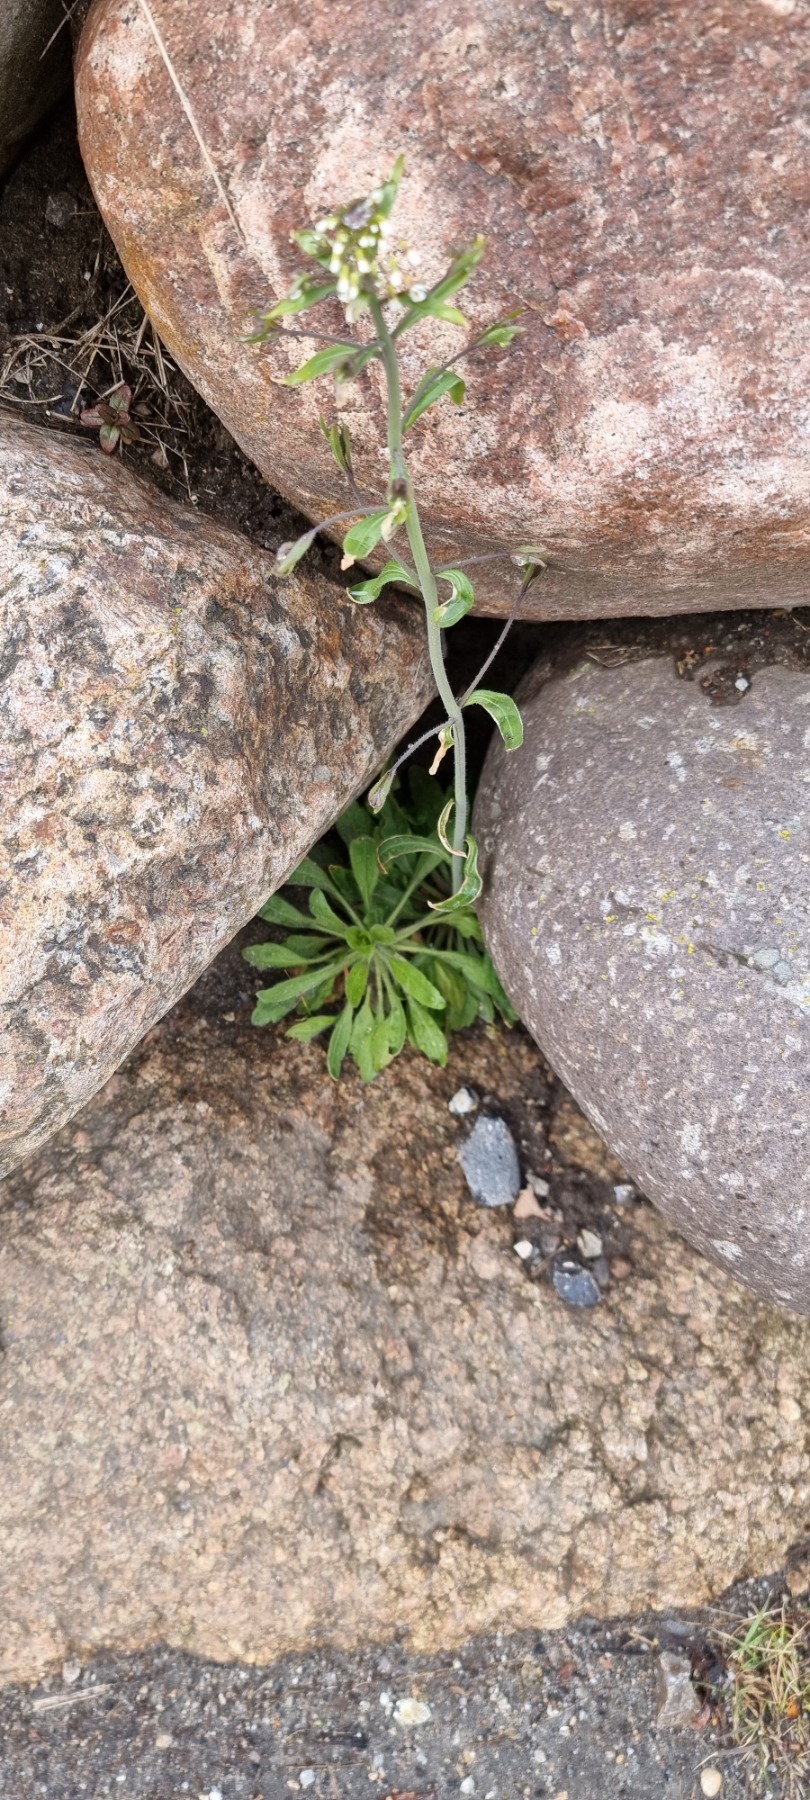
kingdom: Plantae
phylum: Tracheophyta
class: Magnoliopsida
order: Brassicales
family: Brassicaceae
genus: Arabidopsis
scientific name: Arabidopsis thaliana
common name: Almindelig gåsemad
